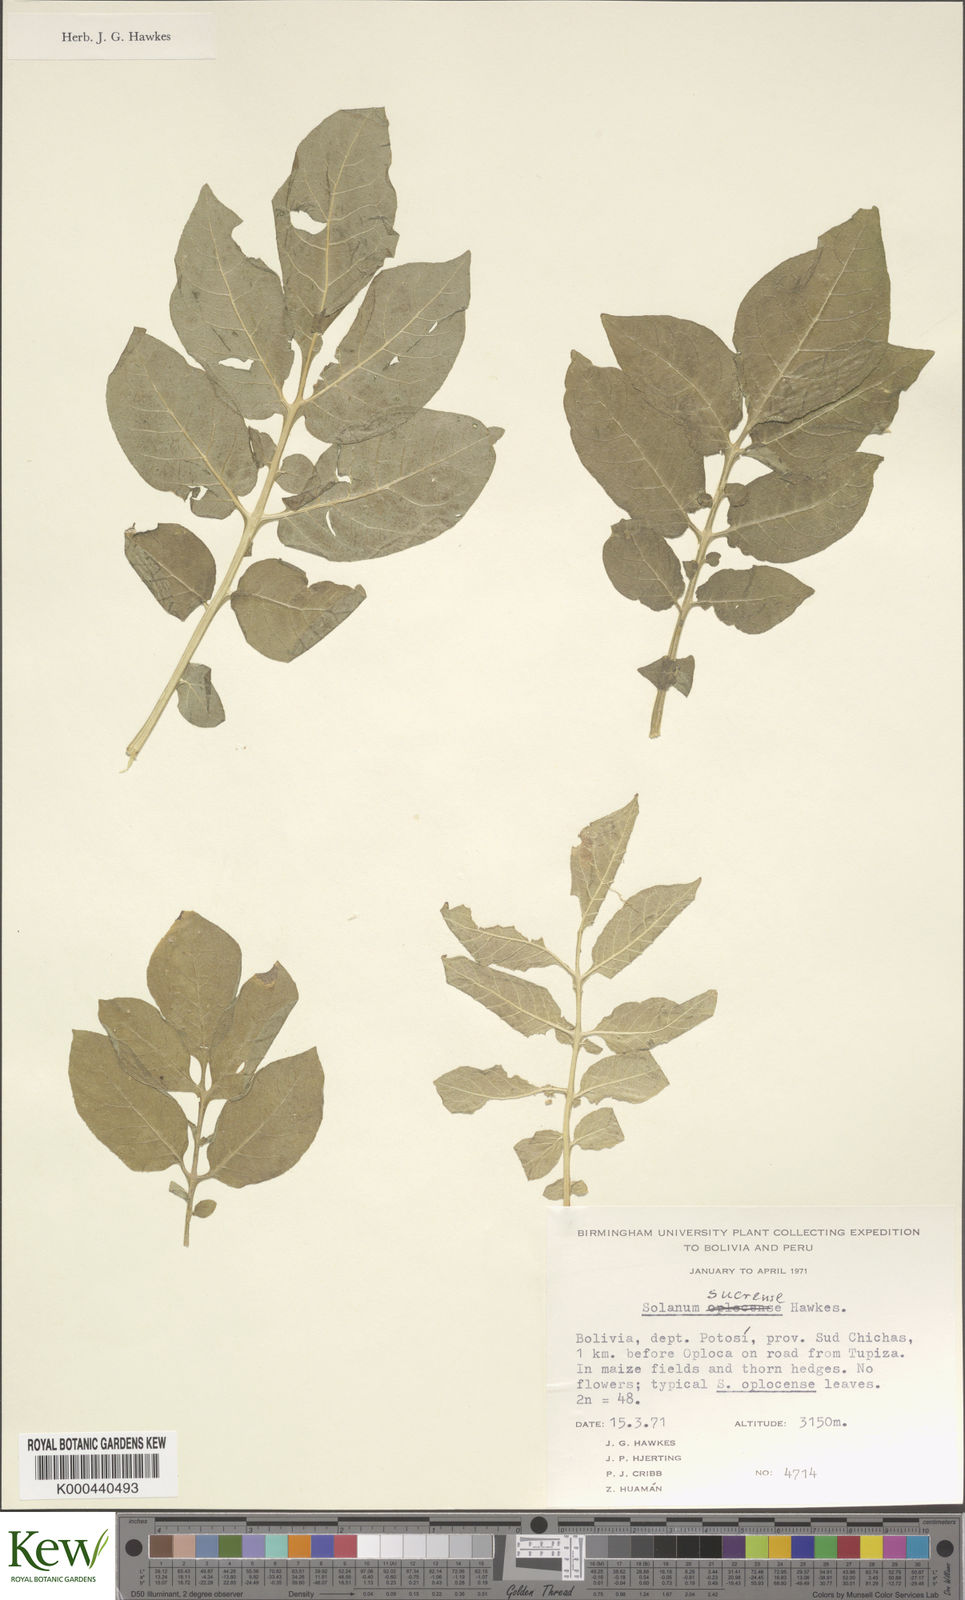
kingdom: Plantae
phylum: Tracheophyta
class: Magnoliopsida
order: Solanales
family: Solanaceae
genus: Solanum
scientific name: Solanum brevicaule
